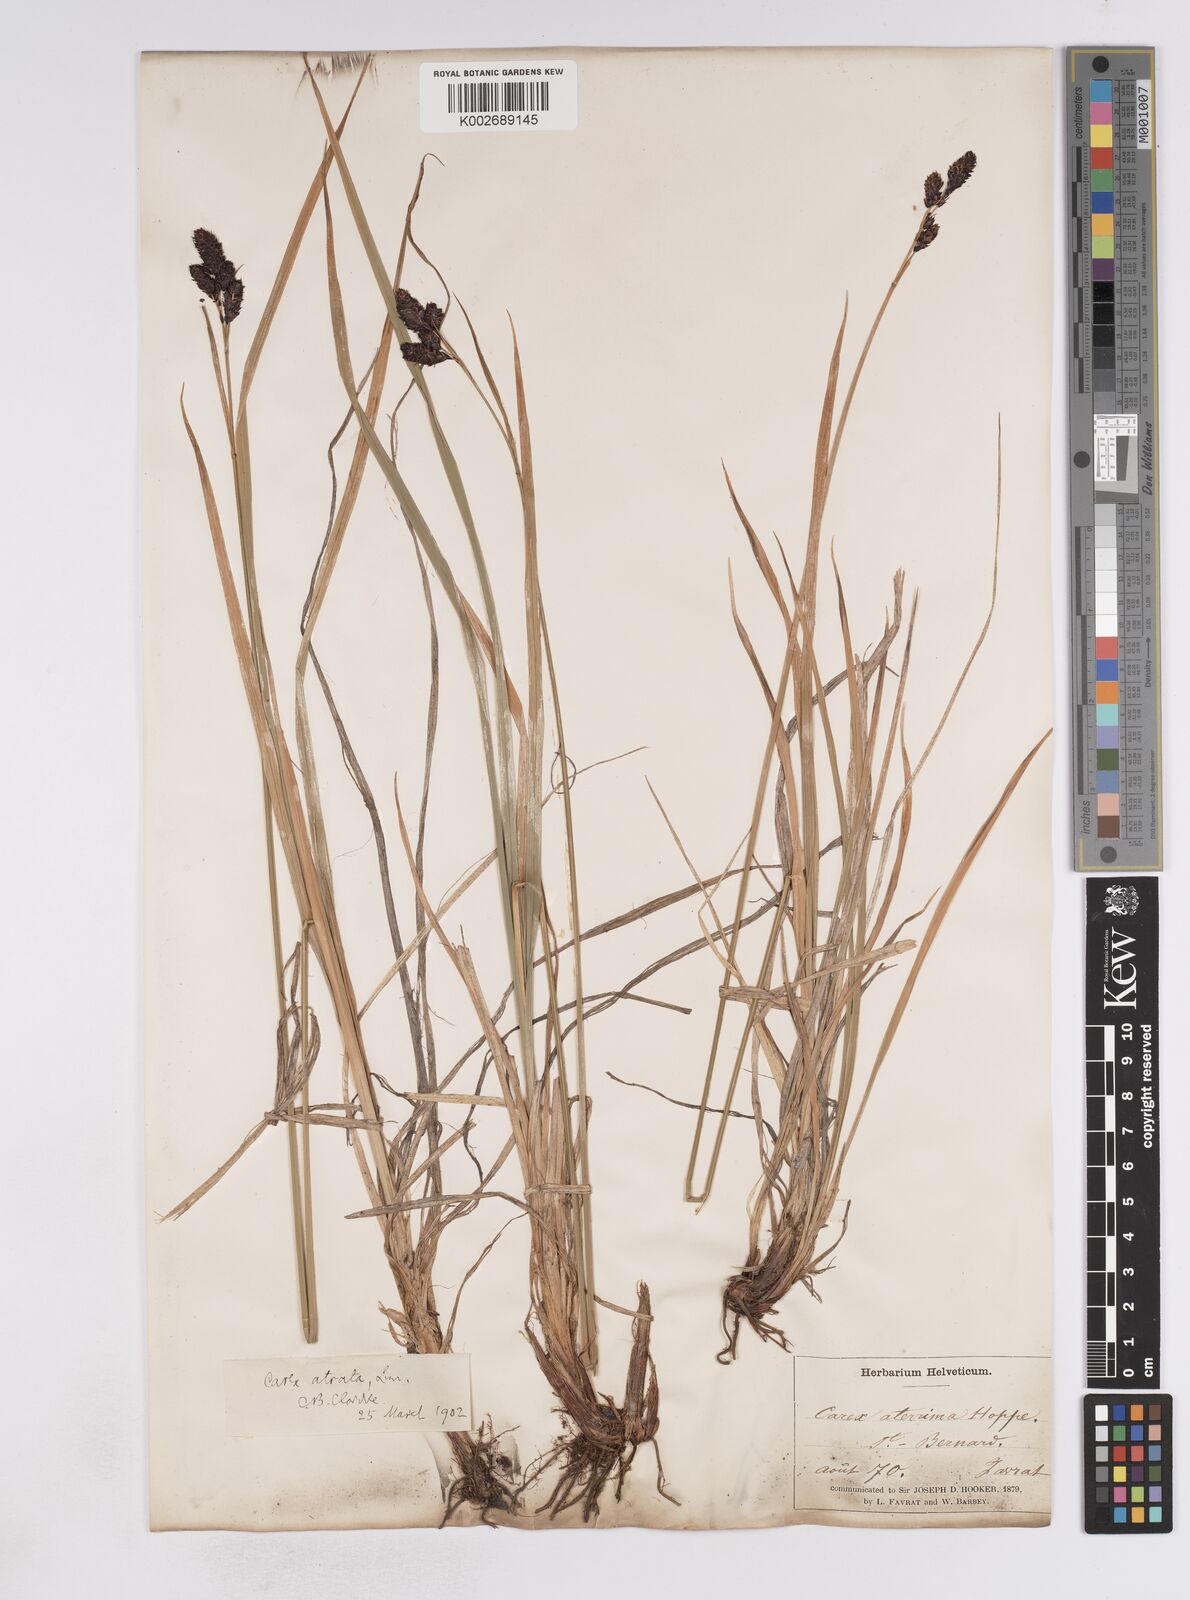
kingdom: Plantae
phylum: Tracheophyta
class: Liliopsida
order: Poales
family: Cyperaceae
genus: Carex
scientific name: Carex aterrima
